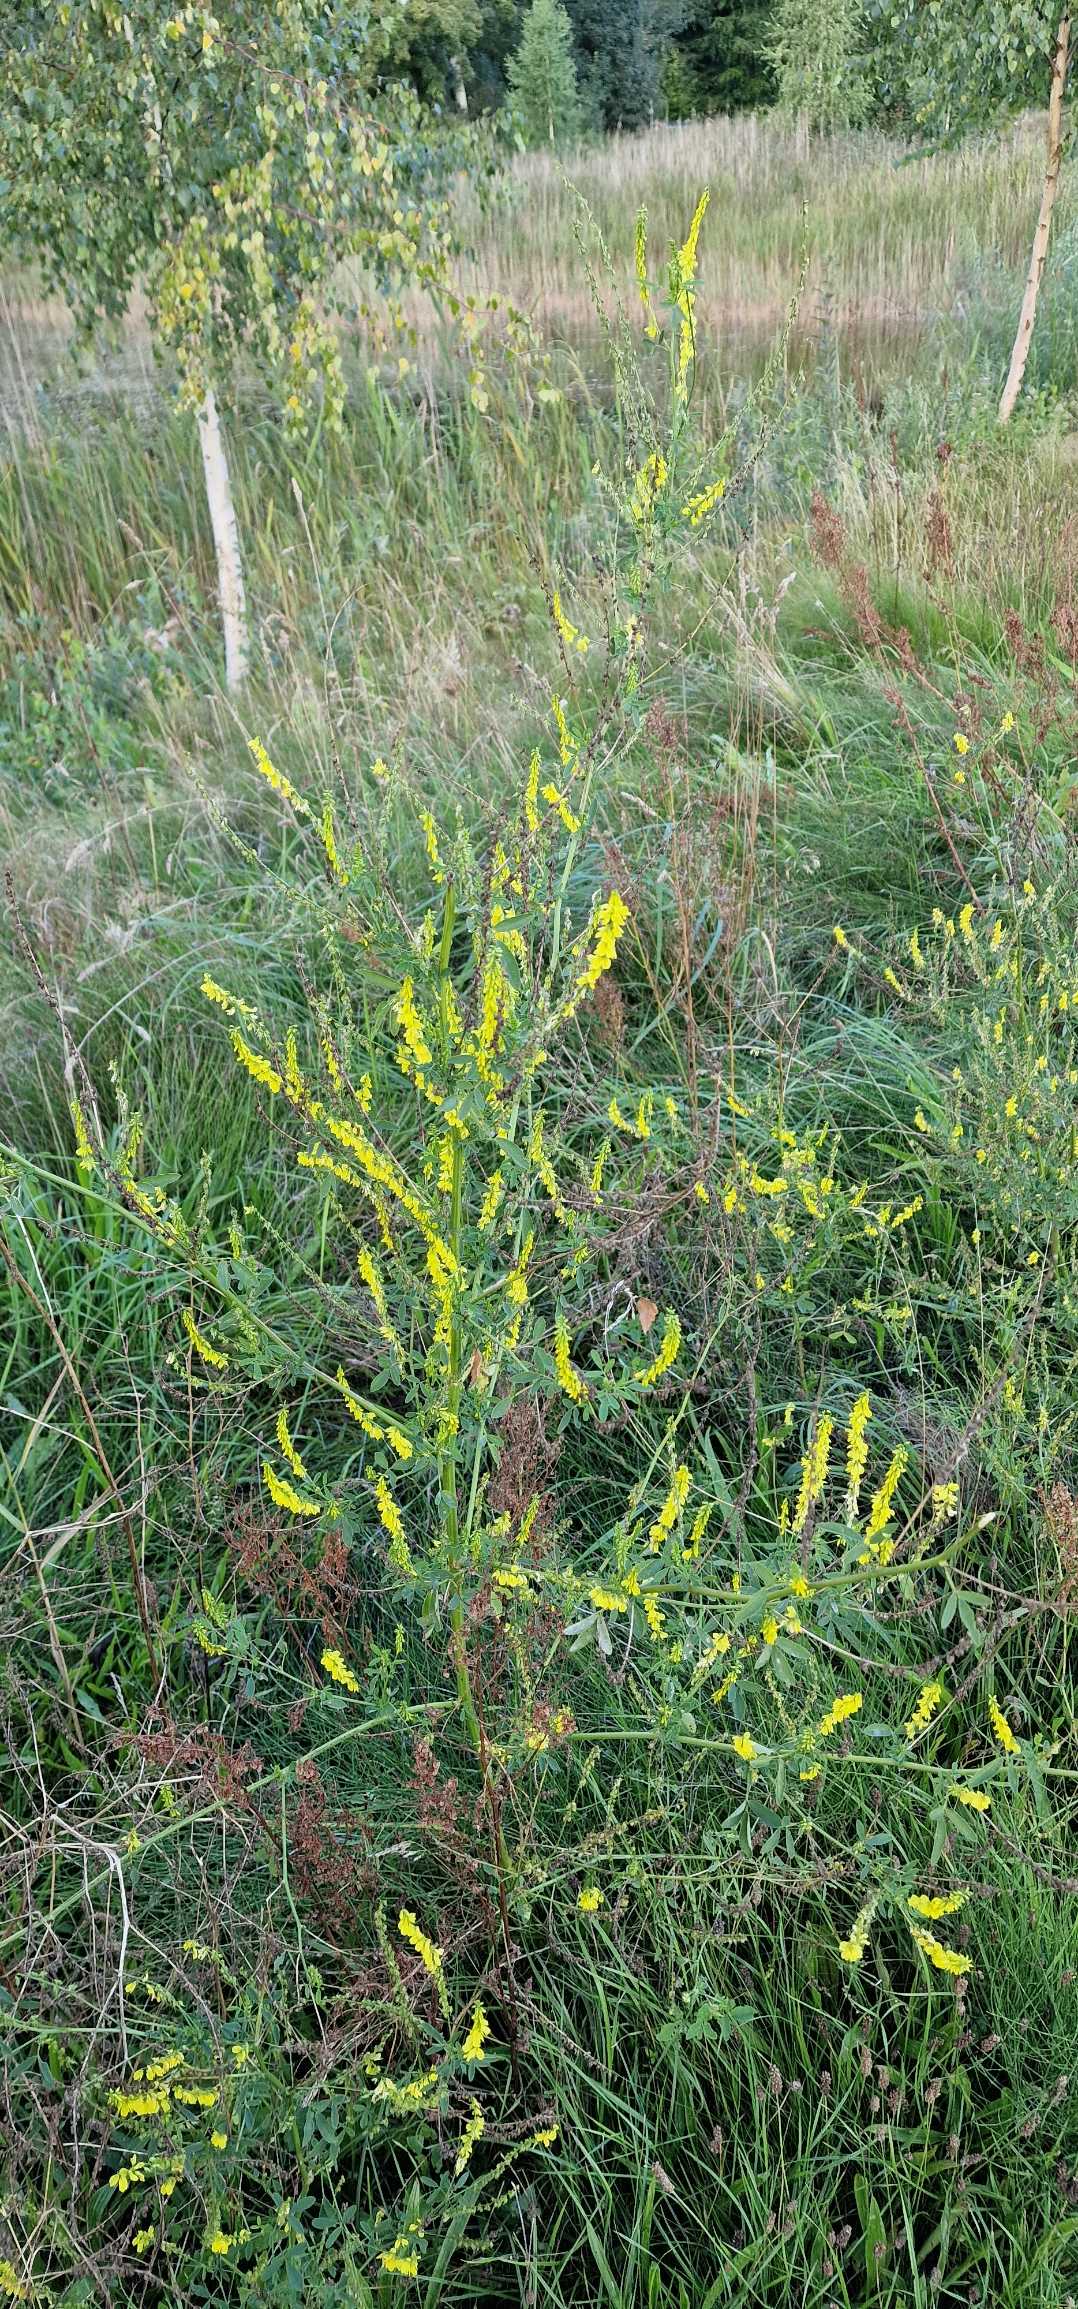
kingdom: Plantae
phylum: Tracheophyta
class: Magnoliopsida
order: Fabales
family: Fabaceae
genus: Melilotus
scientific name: Melilotus
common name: Stenkløverslægten
